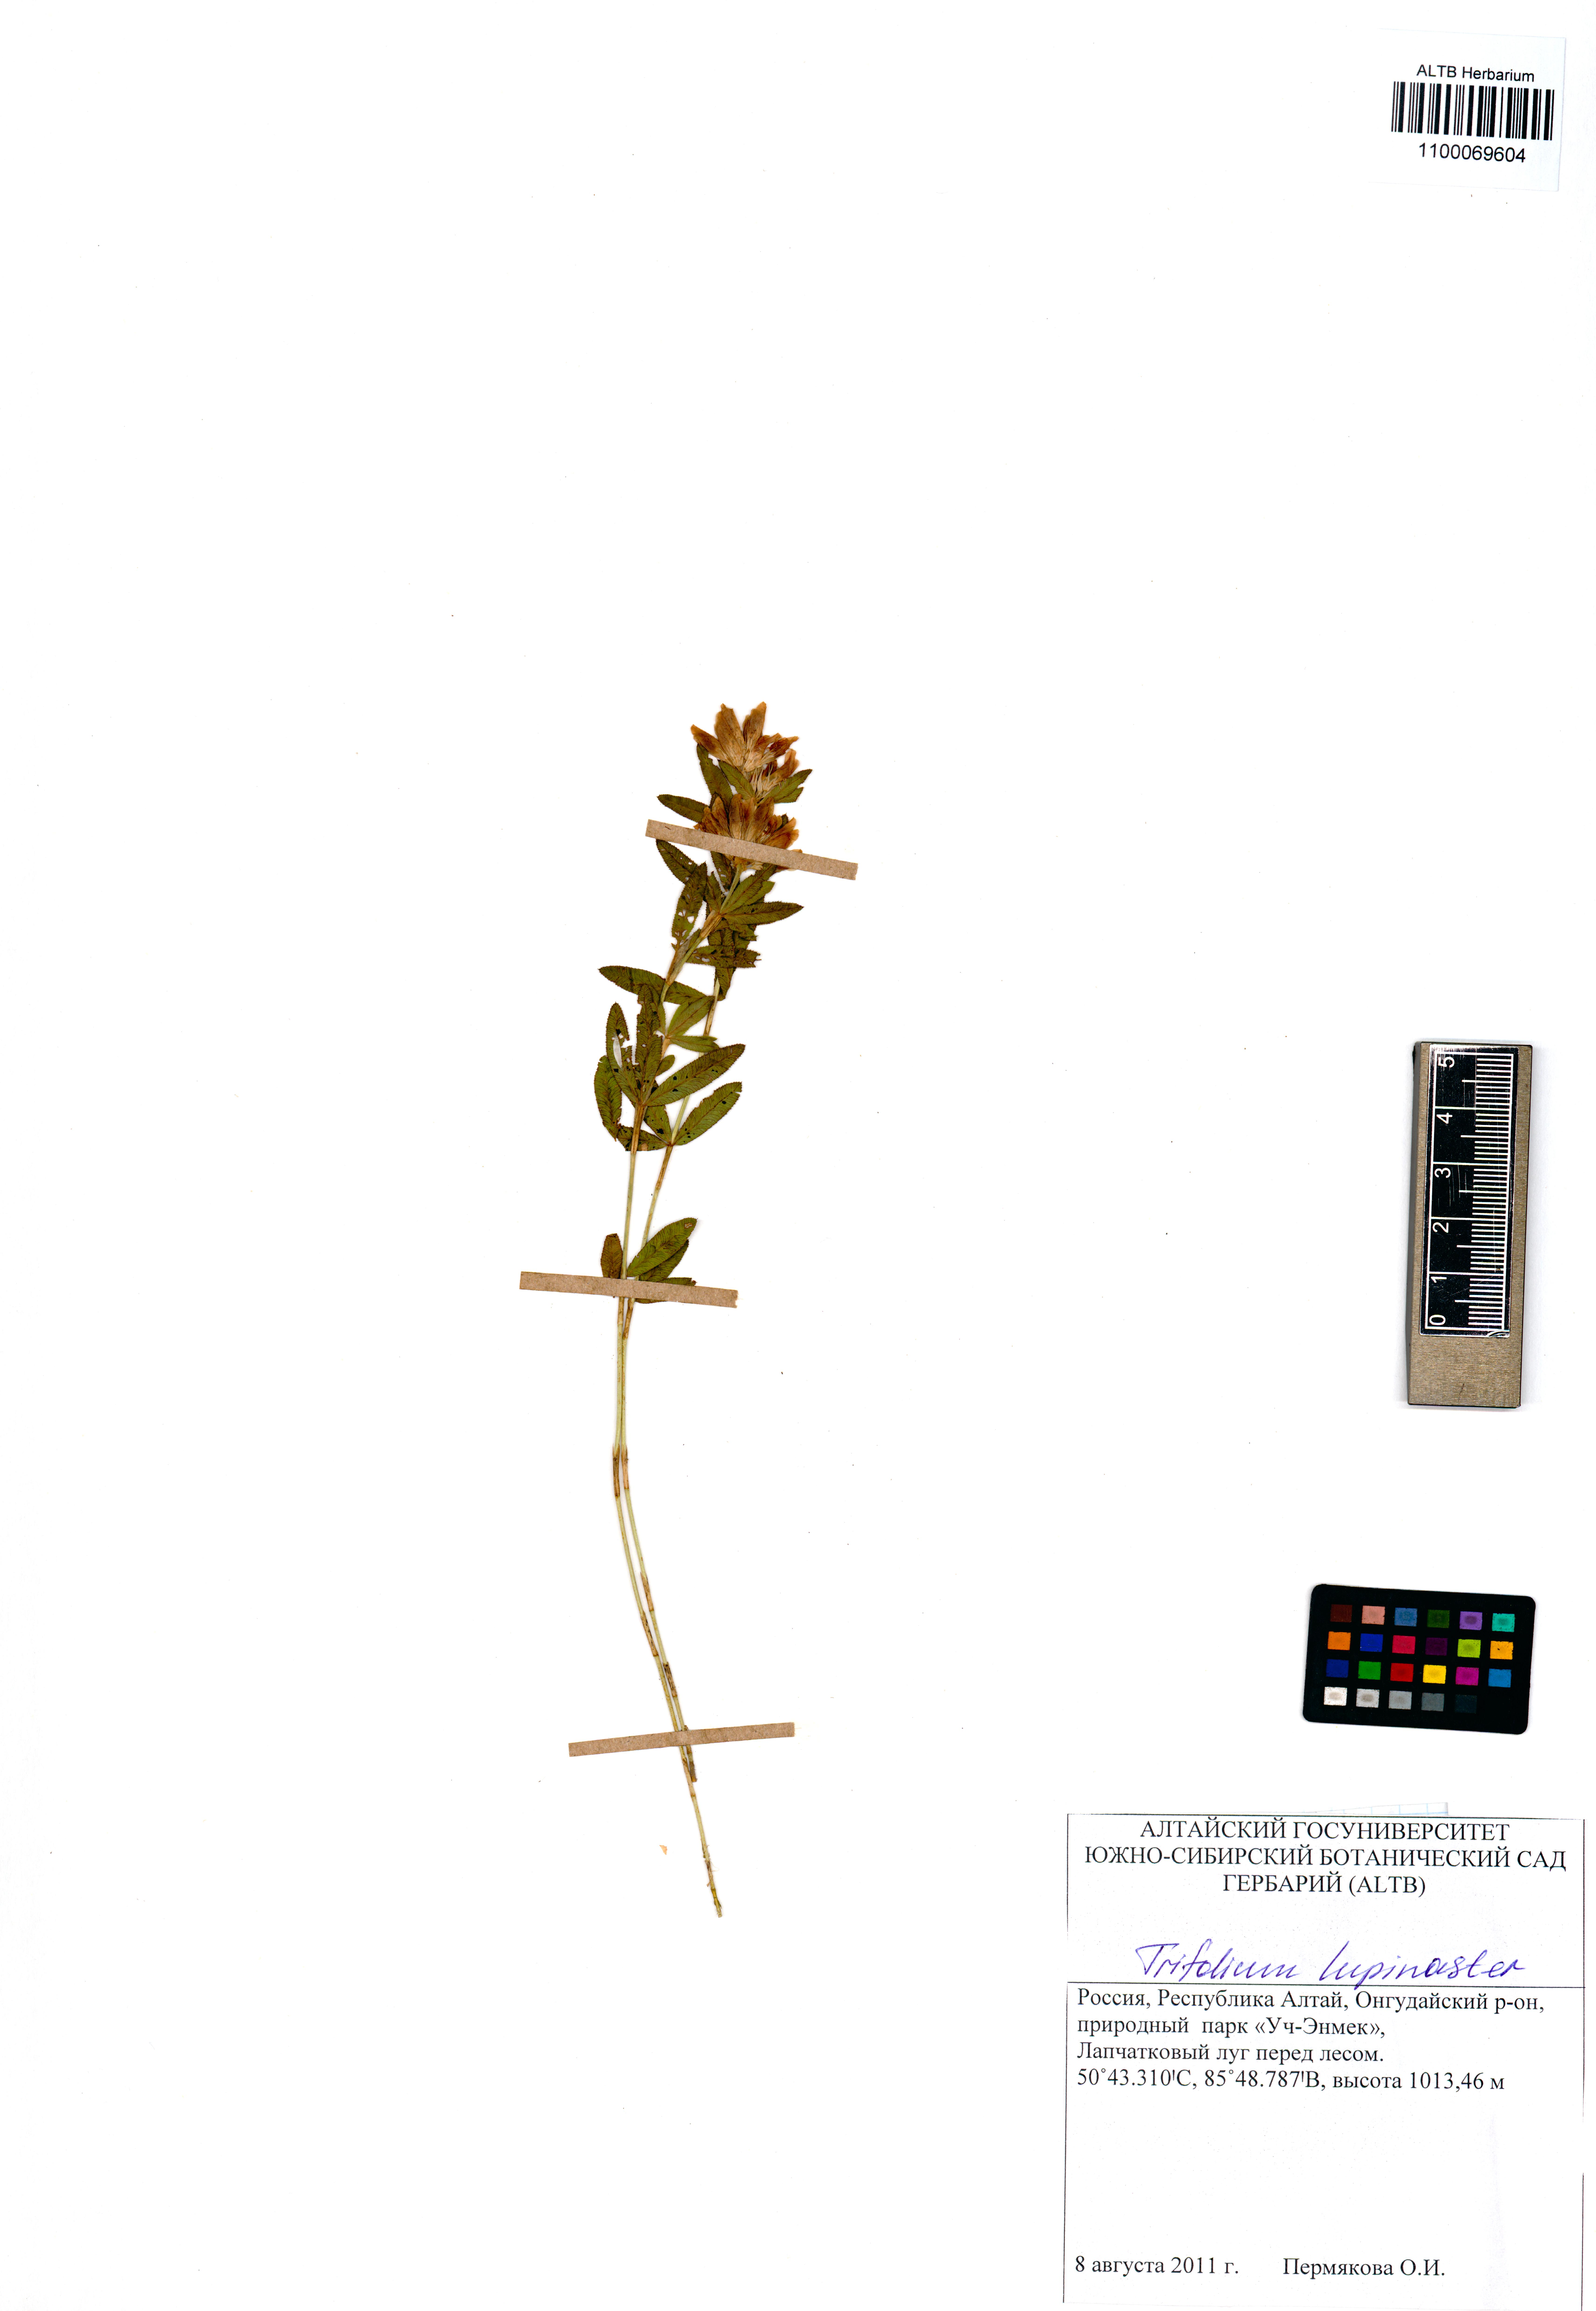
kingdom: Plantae
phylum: Tracheophyta
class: Magnoliopsida
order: Fabales
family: Fabaceae
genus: Trifolium
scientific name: Trifolium lupinaster
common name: Lupine clover
